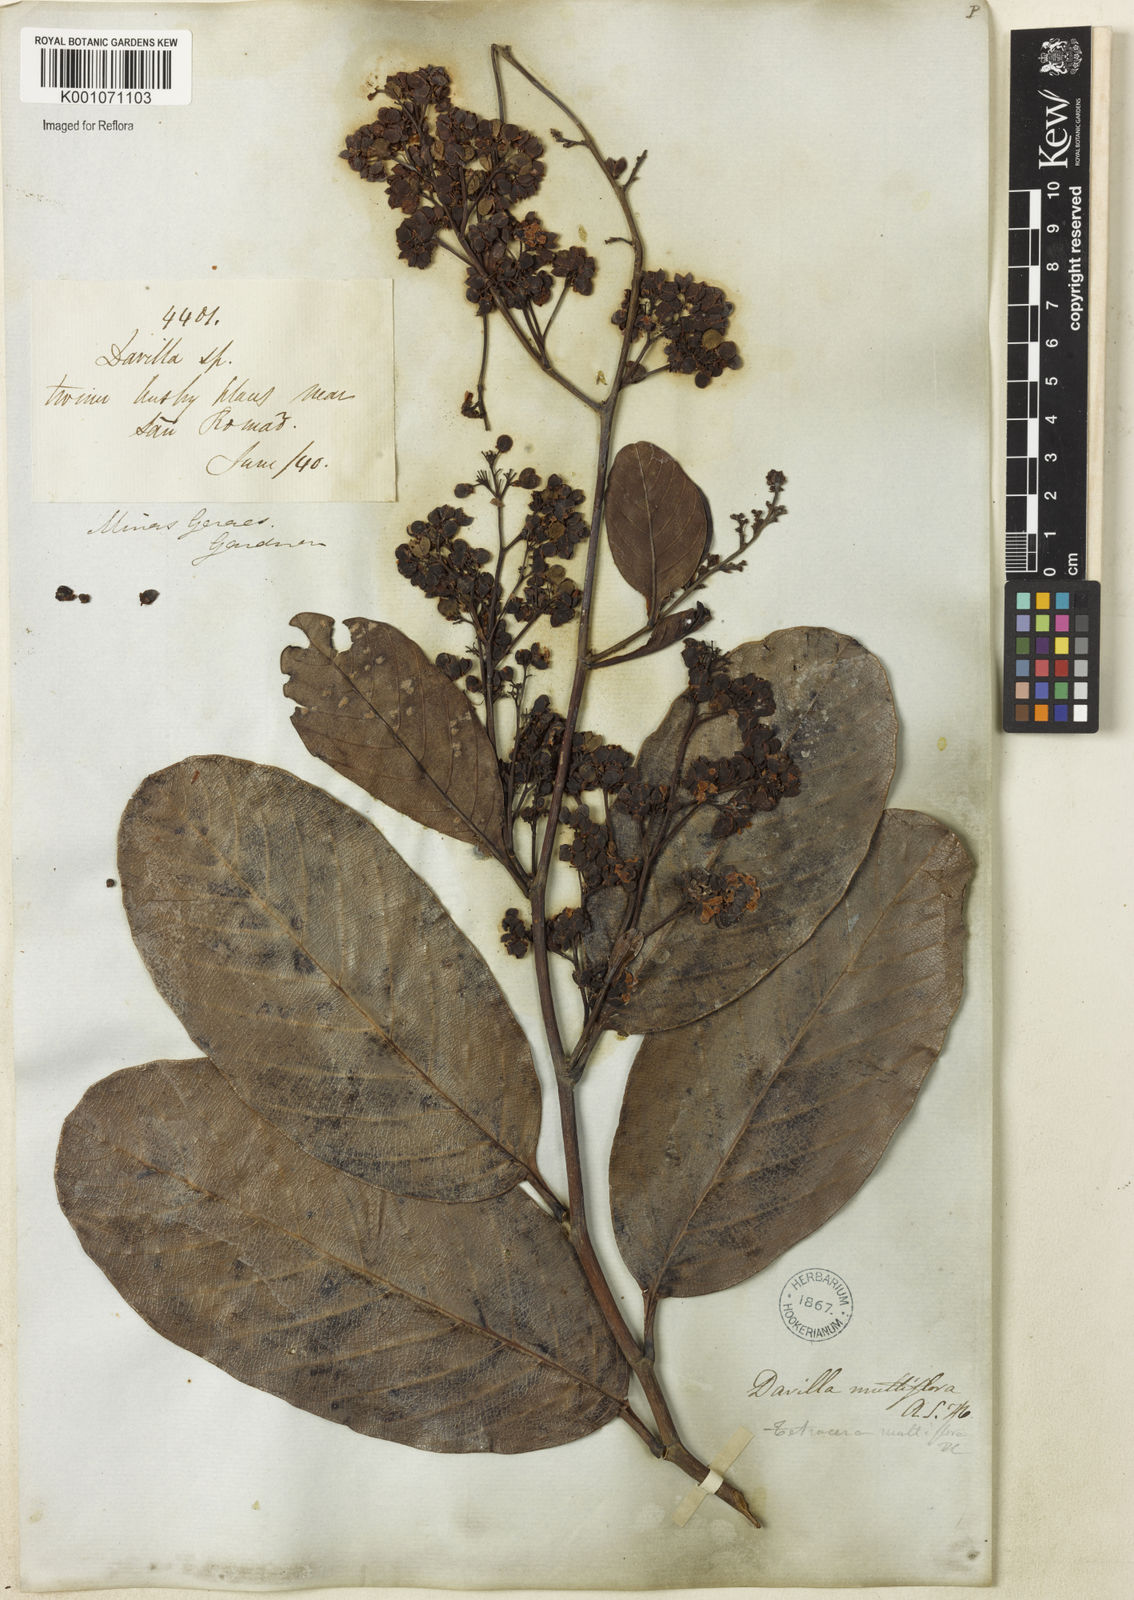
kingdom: Plantae
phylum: Tracheophyta
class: Magnoliopsida
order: Dilleniales
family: Dilleniaceae
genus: Davilla
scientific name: Davilla nitida
